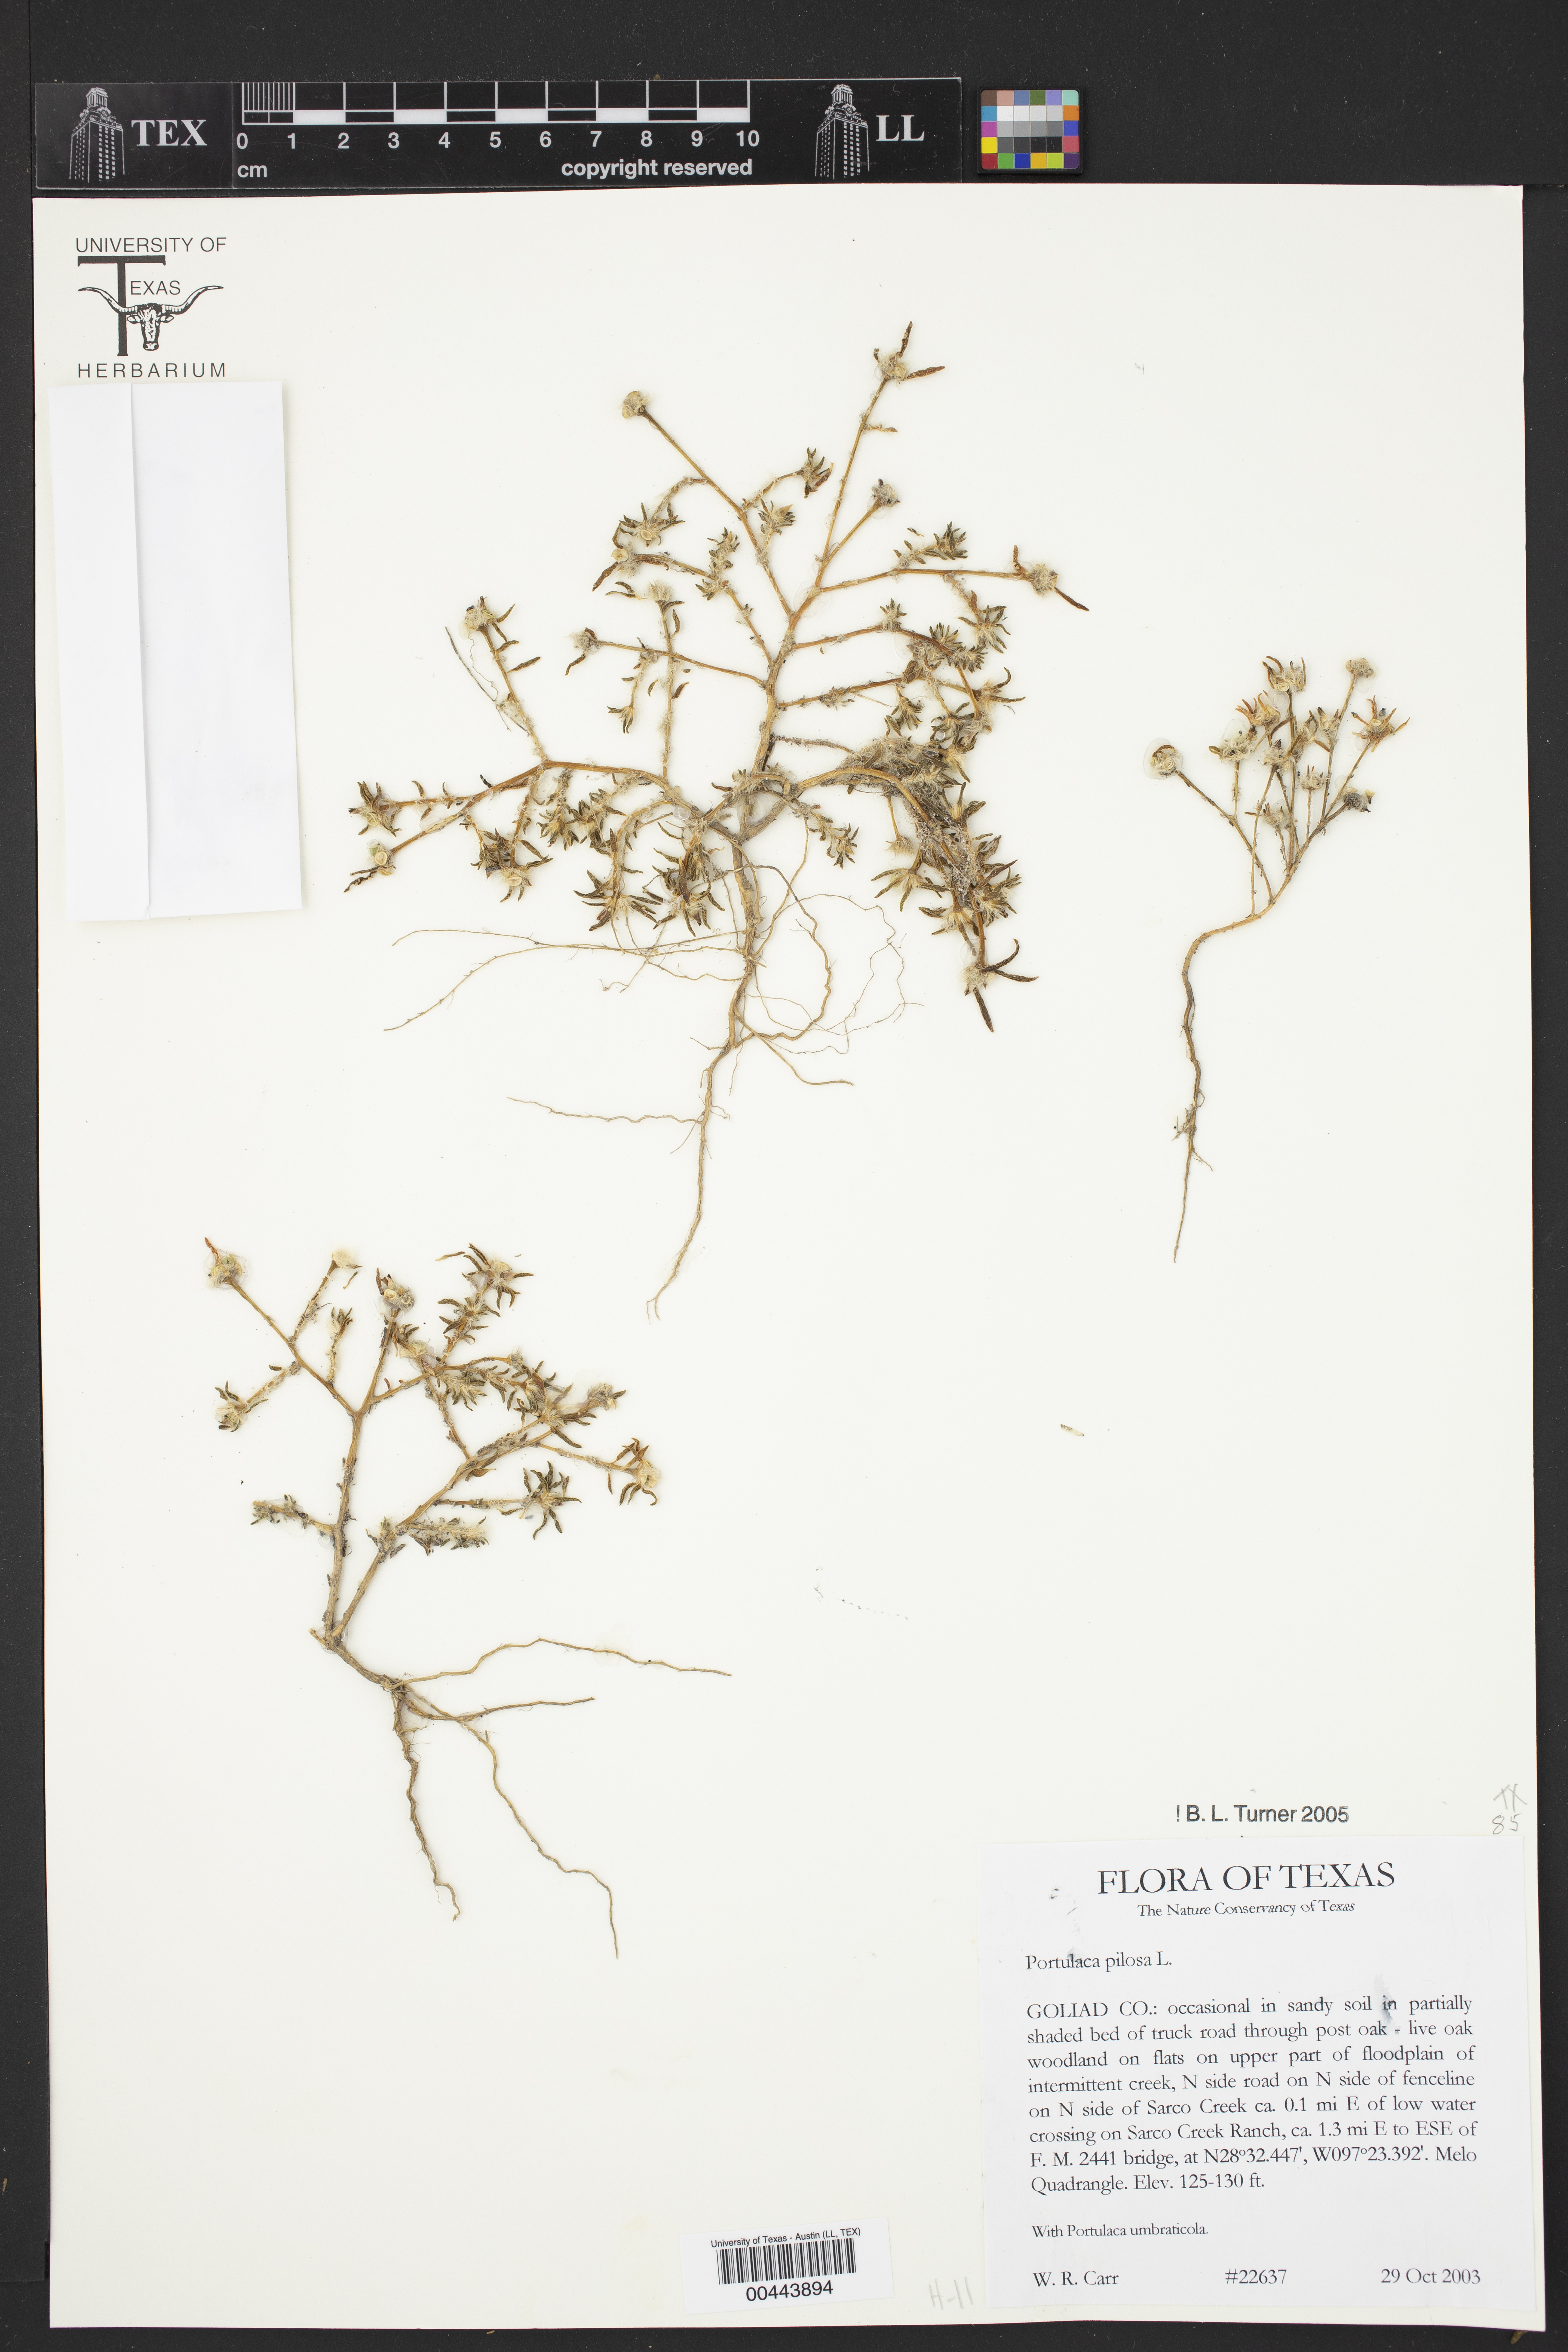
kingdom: Plantae
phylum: Tracheophyta
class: Magnoliopsida
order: Caryophyllales
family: Portulacaceae
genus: Portulaca
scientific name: Portulaca pilosa
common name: Kiss me quick
